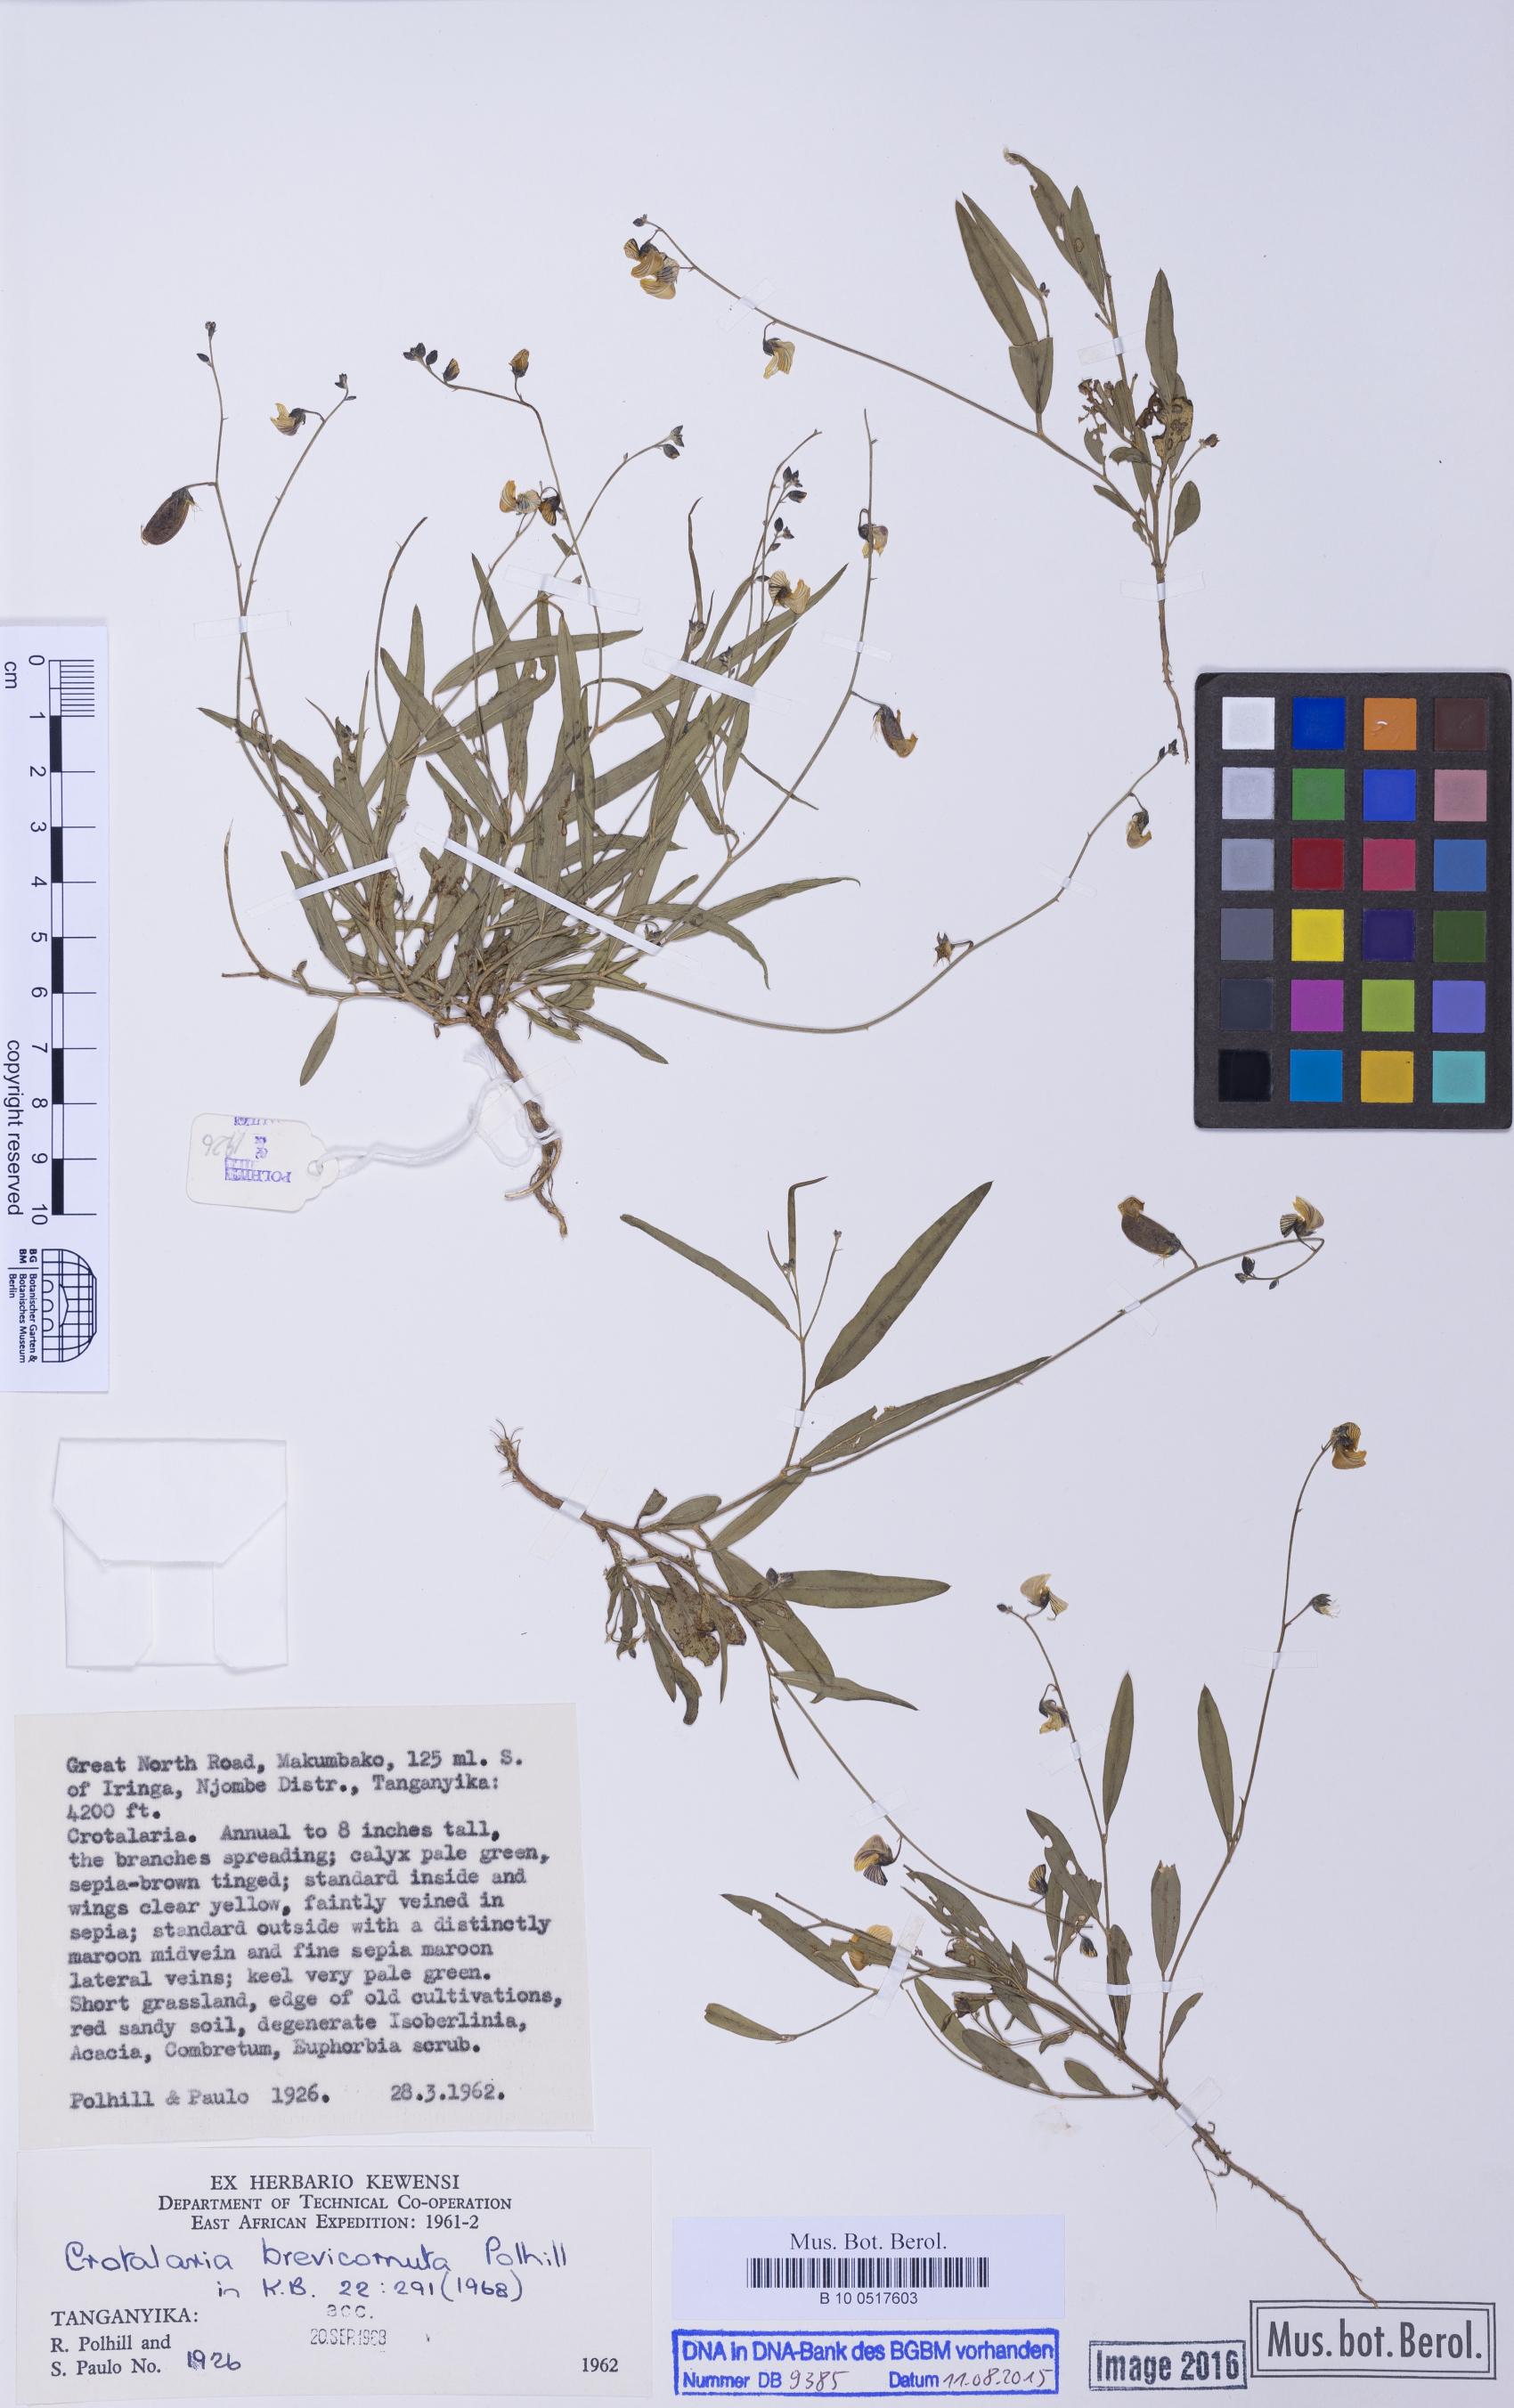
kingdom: Plantae
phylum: Tracheophyta
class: Magnoliopsida
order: Fabales
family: Fabaceae
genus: Crotalaria
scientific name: Crotalaria brevicornuta
